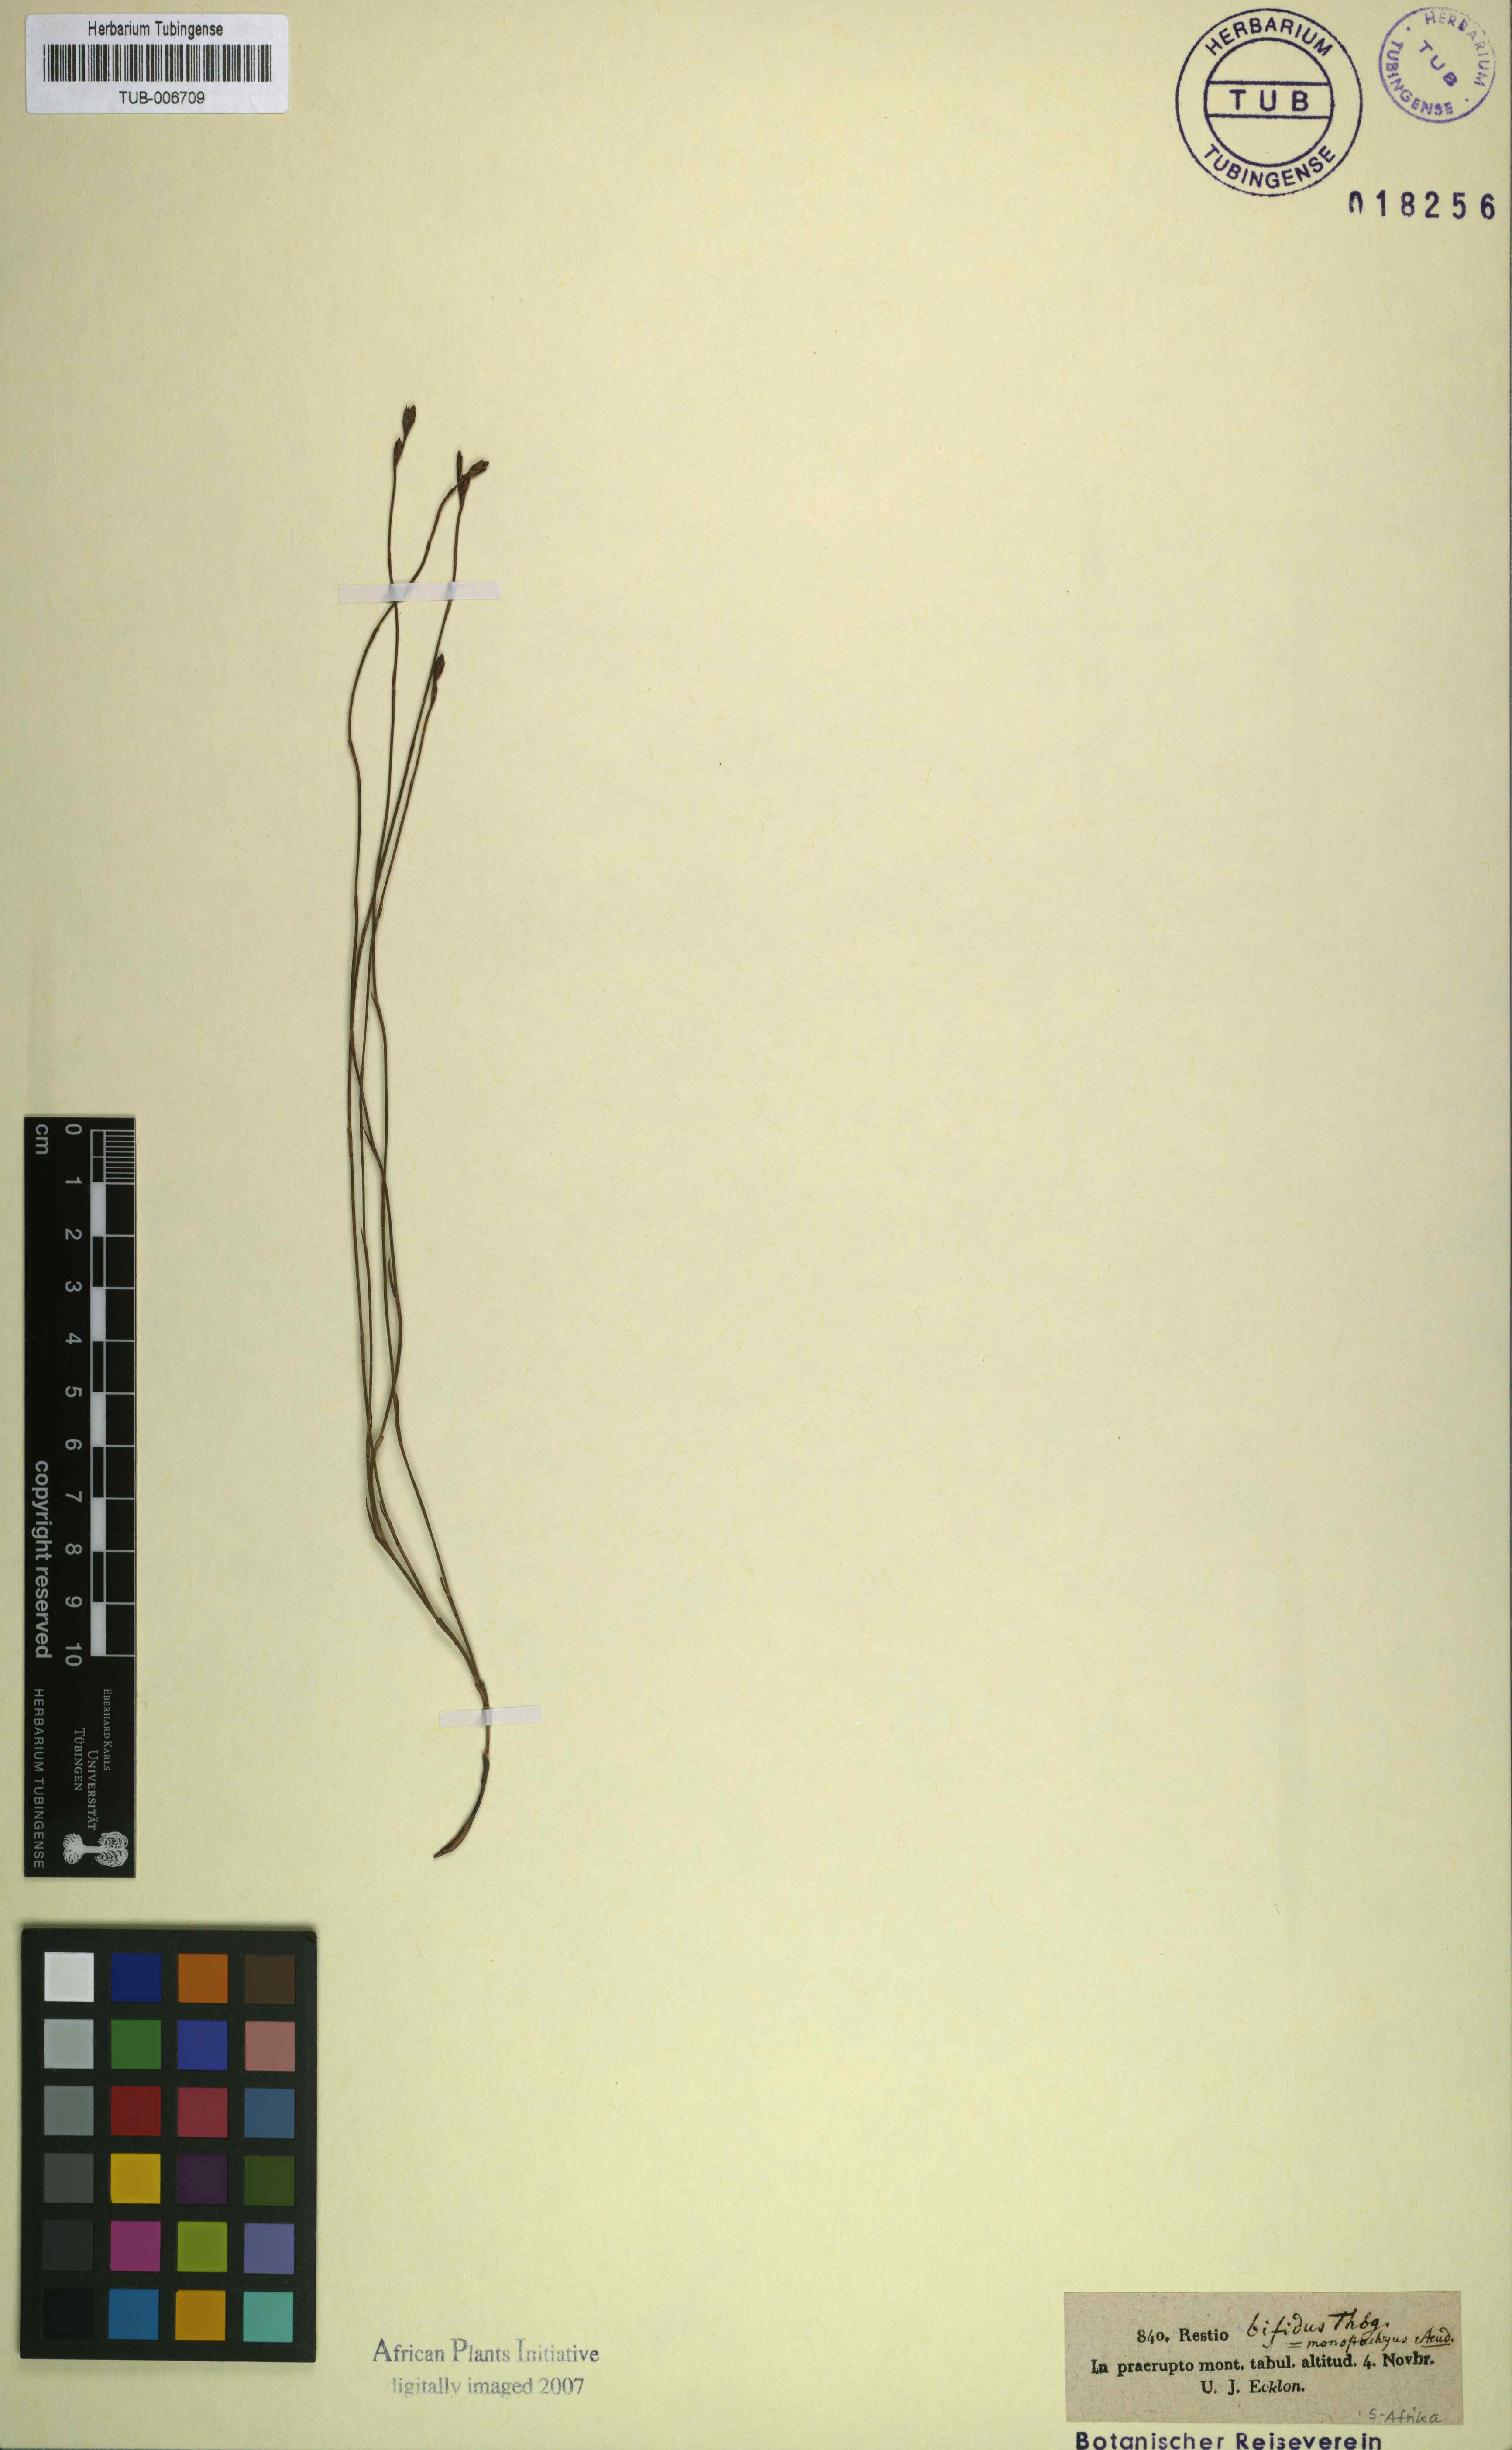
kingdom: Plantae
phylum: Tracheophyta
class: Liliopsida
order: Poales
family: Restionaceae
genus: Restio
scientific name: Restio bifidus
